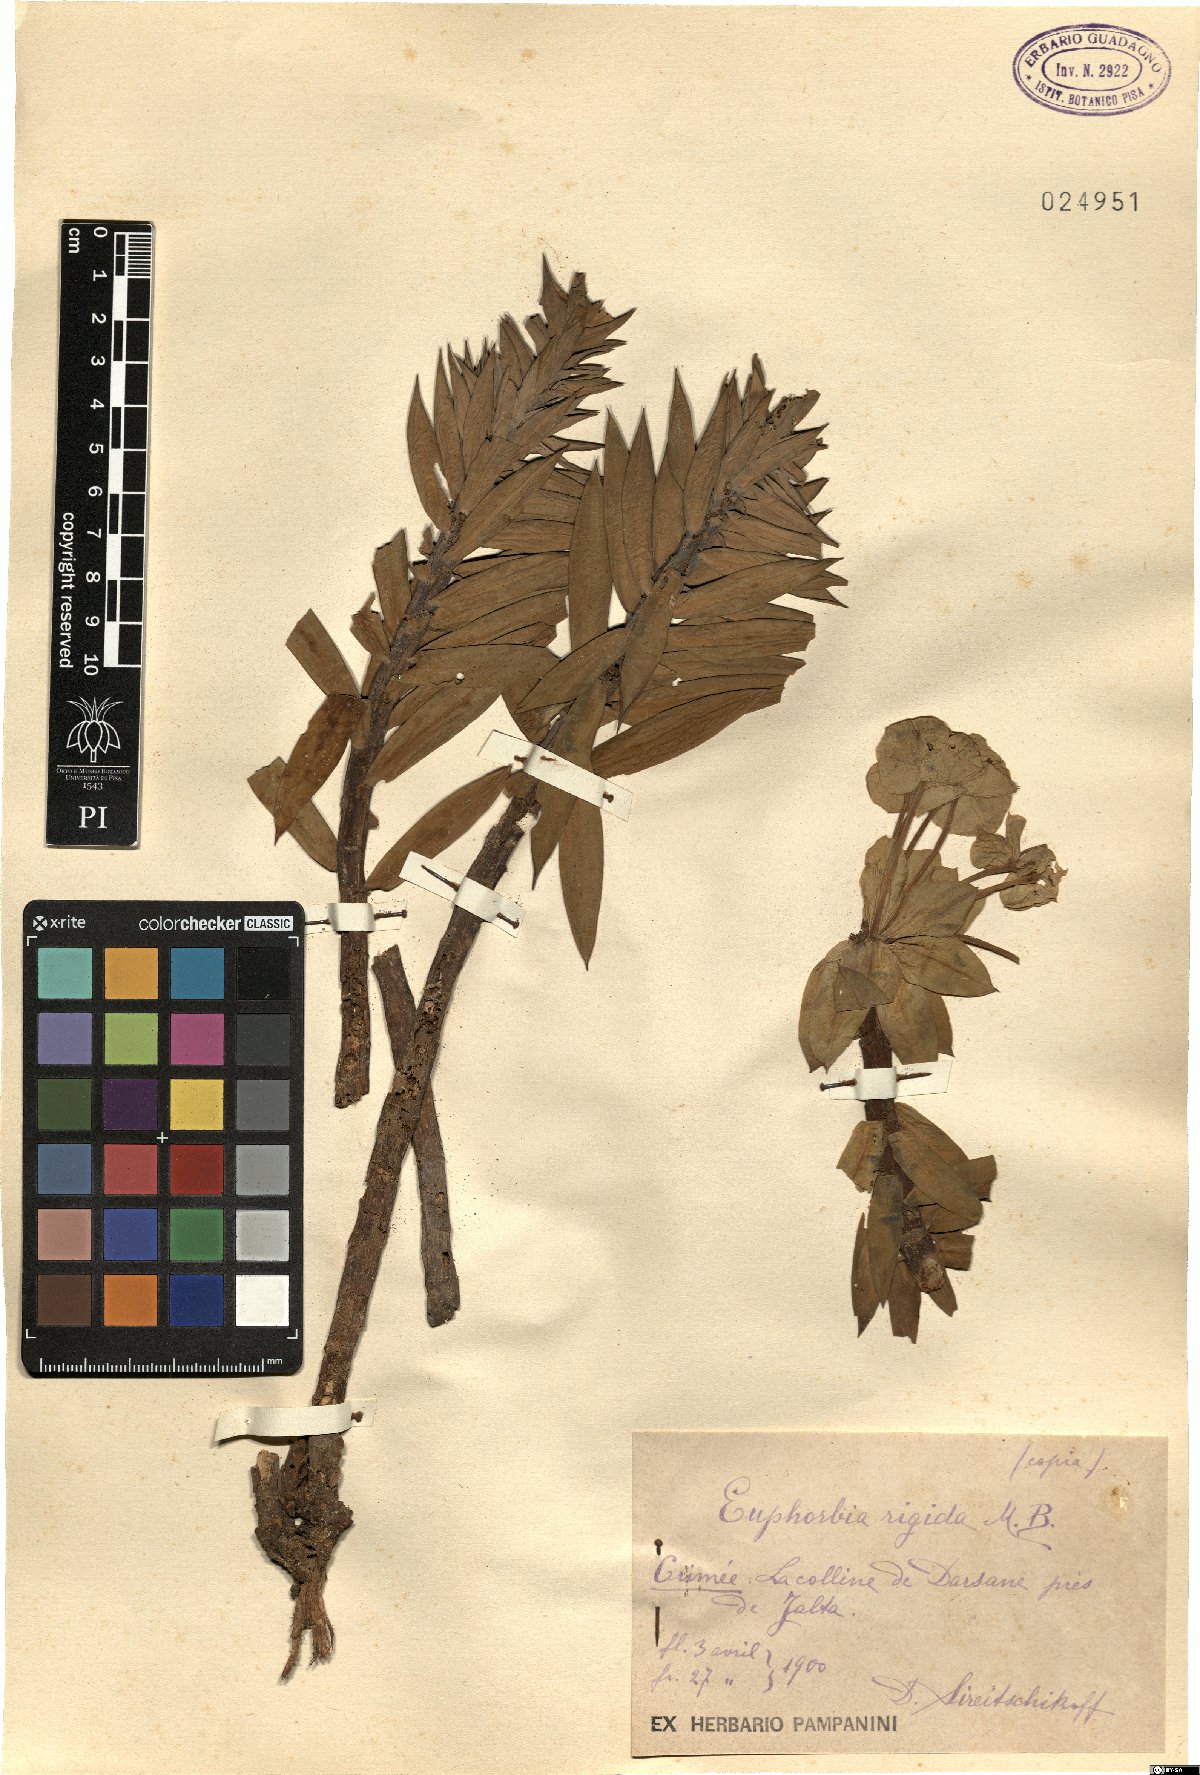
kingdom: Plantae
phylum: Tracheophyta
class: Magnoliopsida
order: Malpighiales
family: Euphorbiaceae
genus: Euphorbia
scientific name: Euphorbia rigida
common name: Upright myrtle spurge
